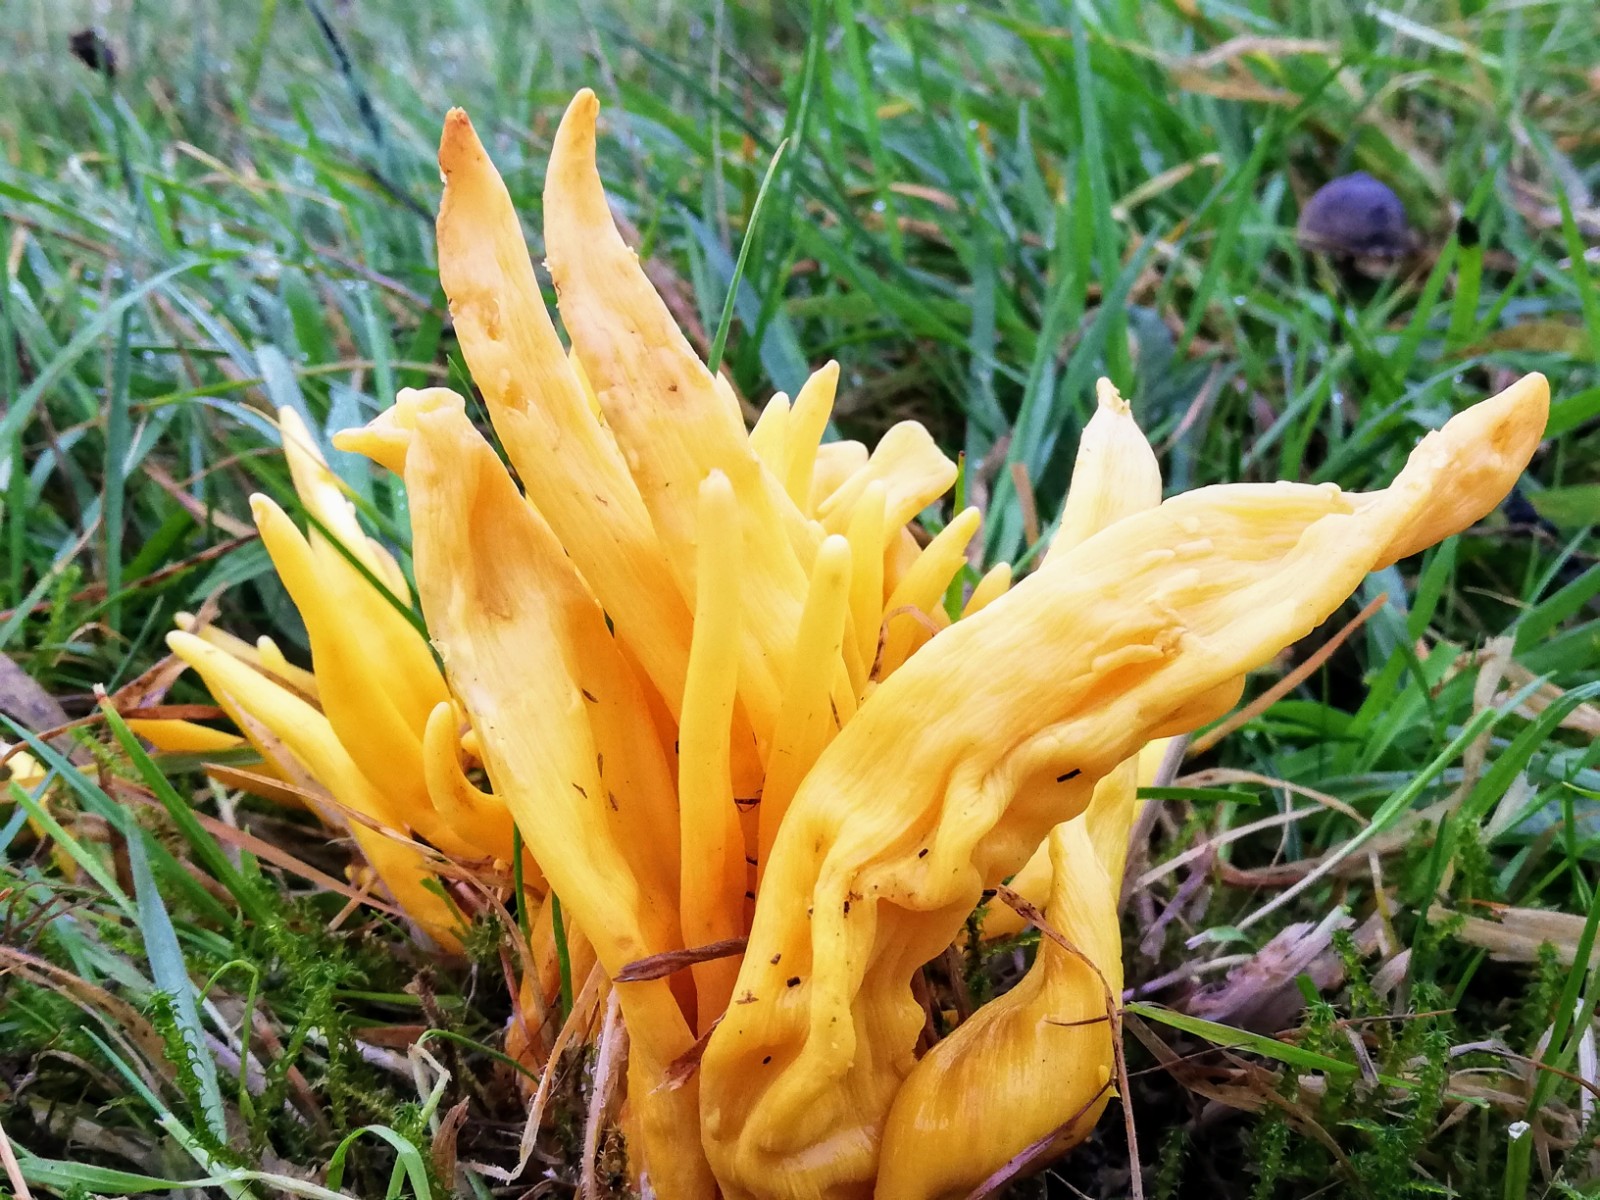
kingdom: Fungi
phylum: Basidiomycota
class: Agaricomycetes
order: Agaricales
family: Clavariaceae
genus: Clavulinopsis
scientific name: Clavulinopsis fusiformis
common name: tenformet køllesvamp
